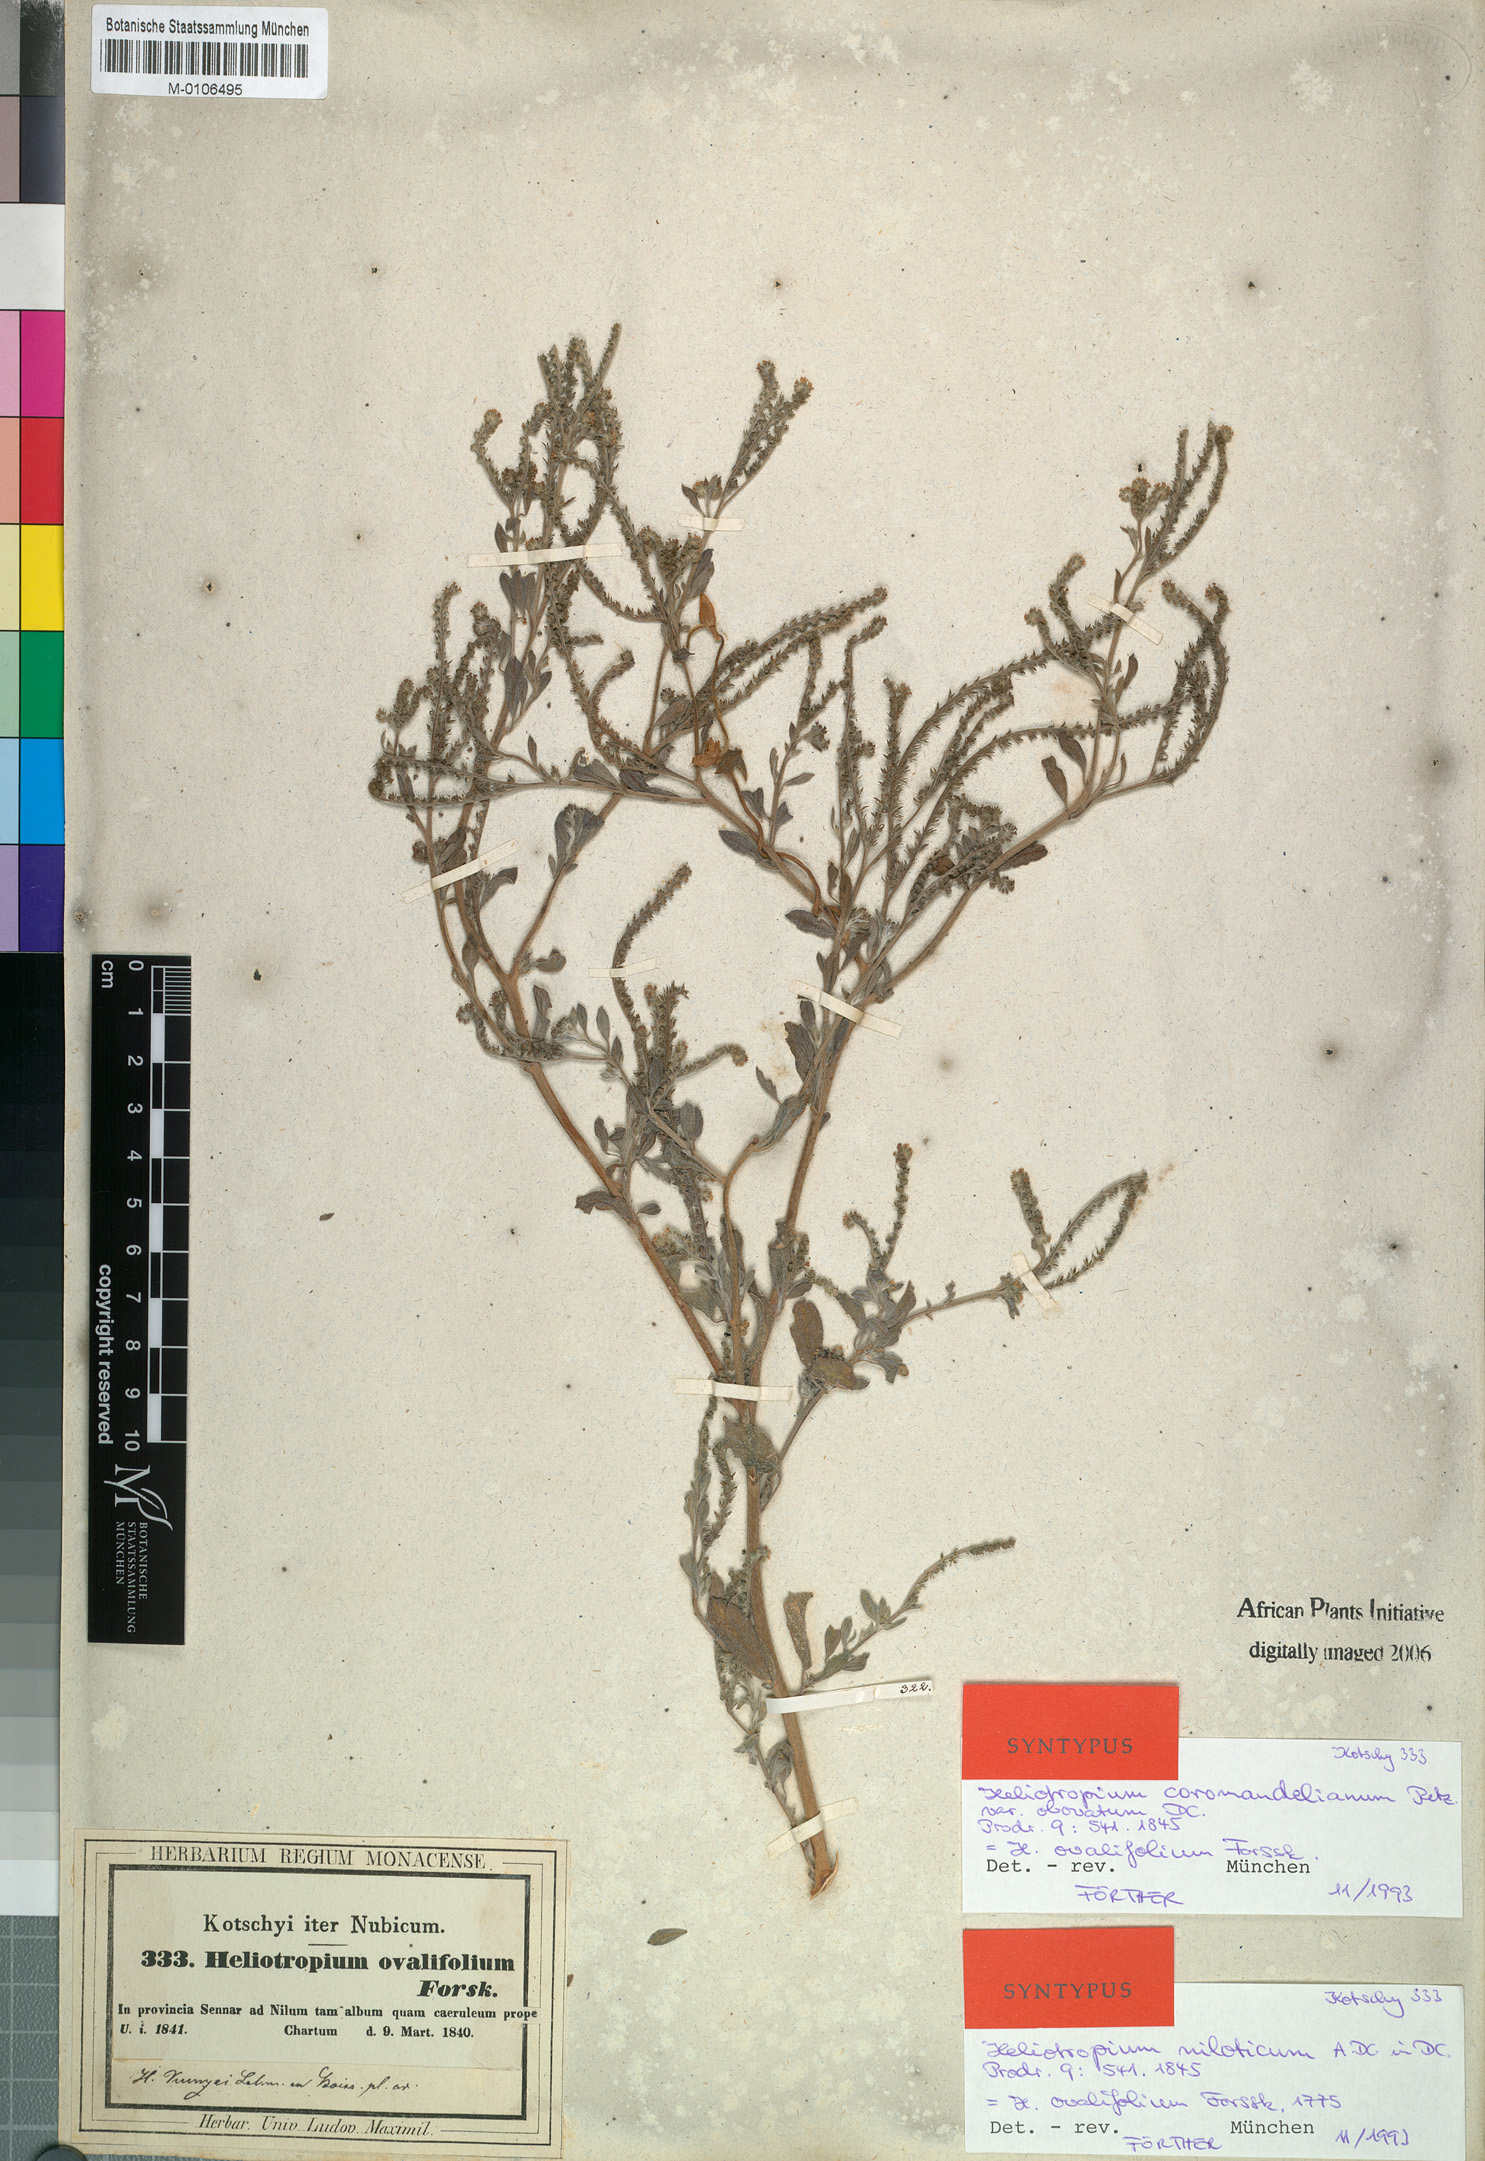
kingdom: Plantae
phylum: Tracheophyta
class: Magnoliopsida
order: Boraginales
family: Heliotropiaceae
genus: Euploca
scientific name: Euploca ovalifolia
